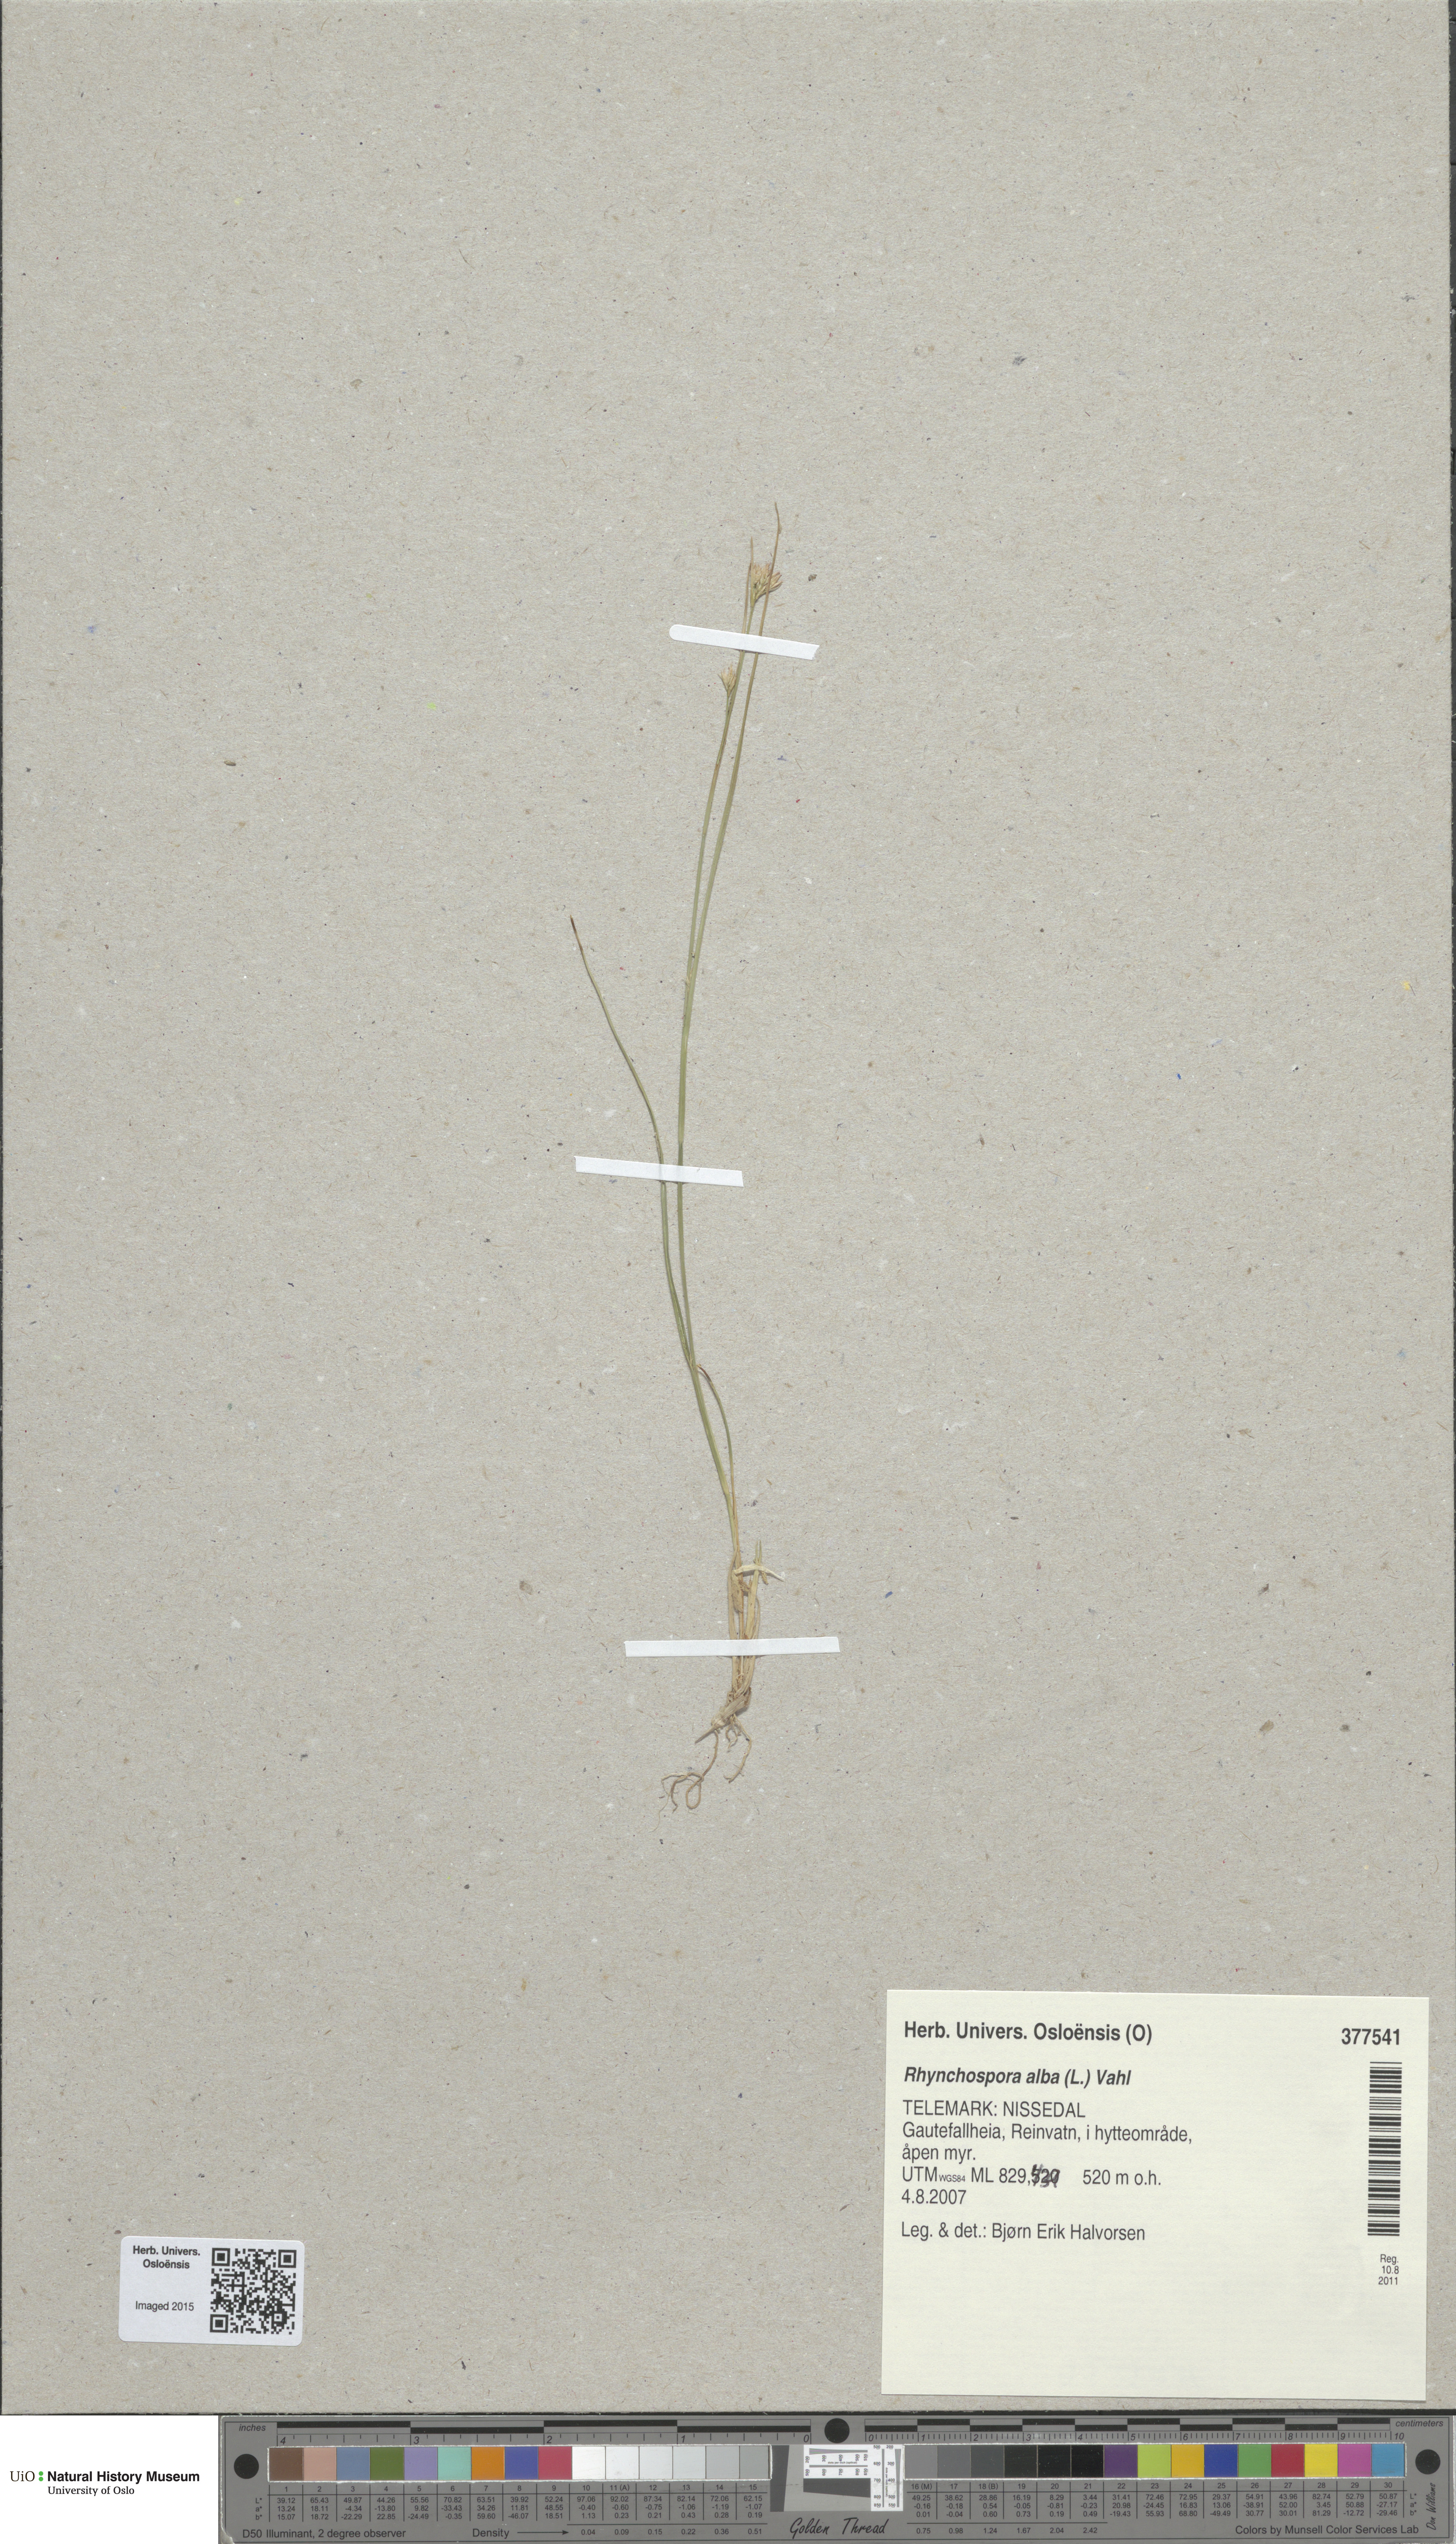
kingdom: Plantae
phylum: Tracheophyta
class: Liliopsida
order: Poales
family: Cyperaceae
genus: Rhynchospora
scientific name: Rhynchospora alba
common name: White beak-sedge
